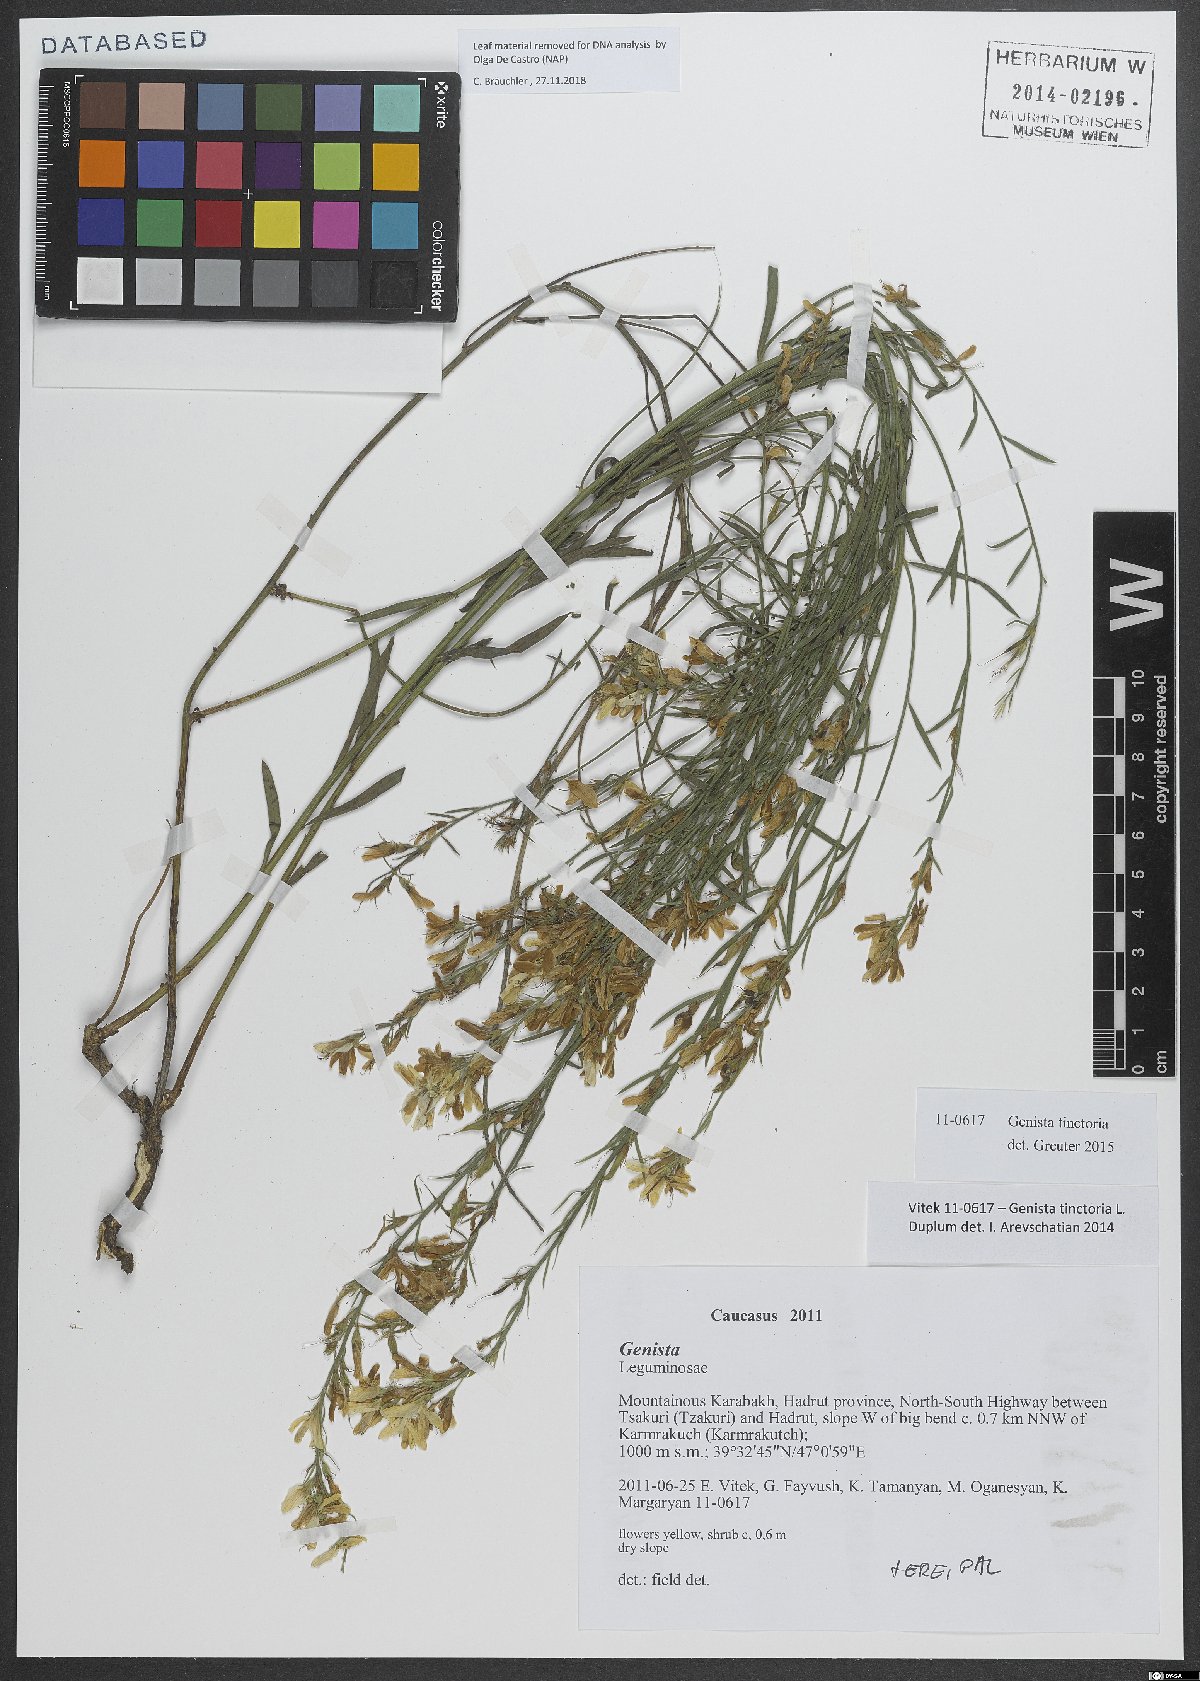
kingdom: Plantae
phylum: Tracheophyta
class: Magnoliopsida
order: Fabales
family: Fabaceae
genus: Genista
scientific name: Genista tinctoria
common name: Dyer's greenweed
